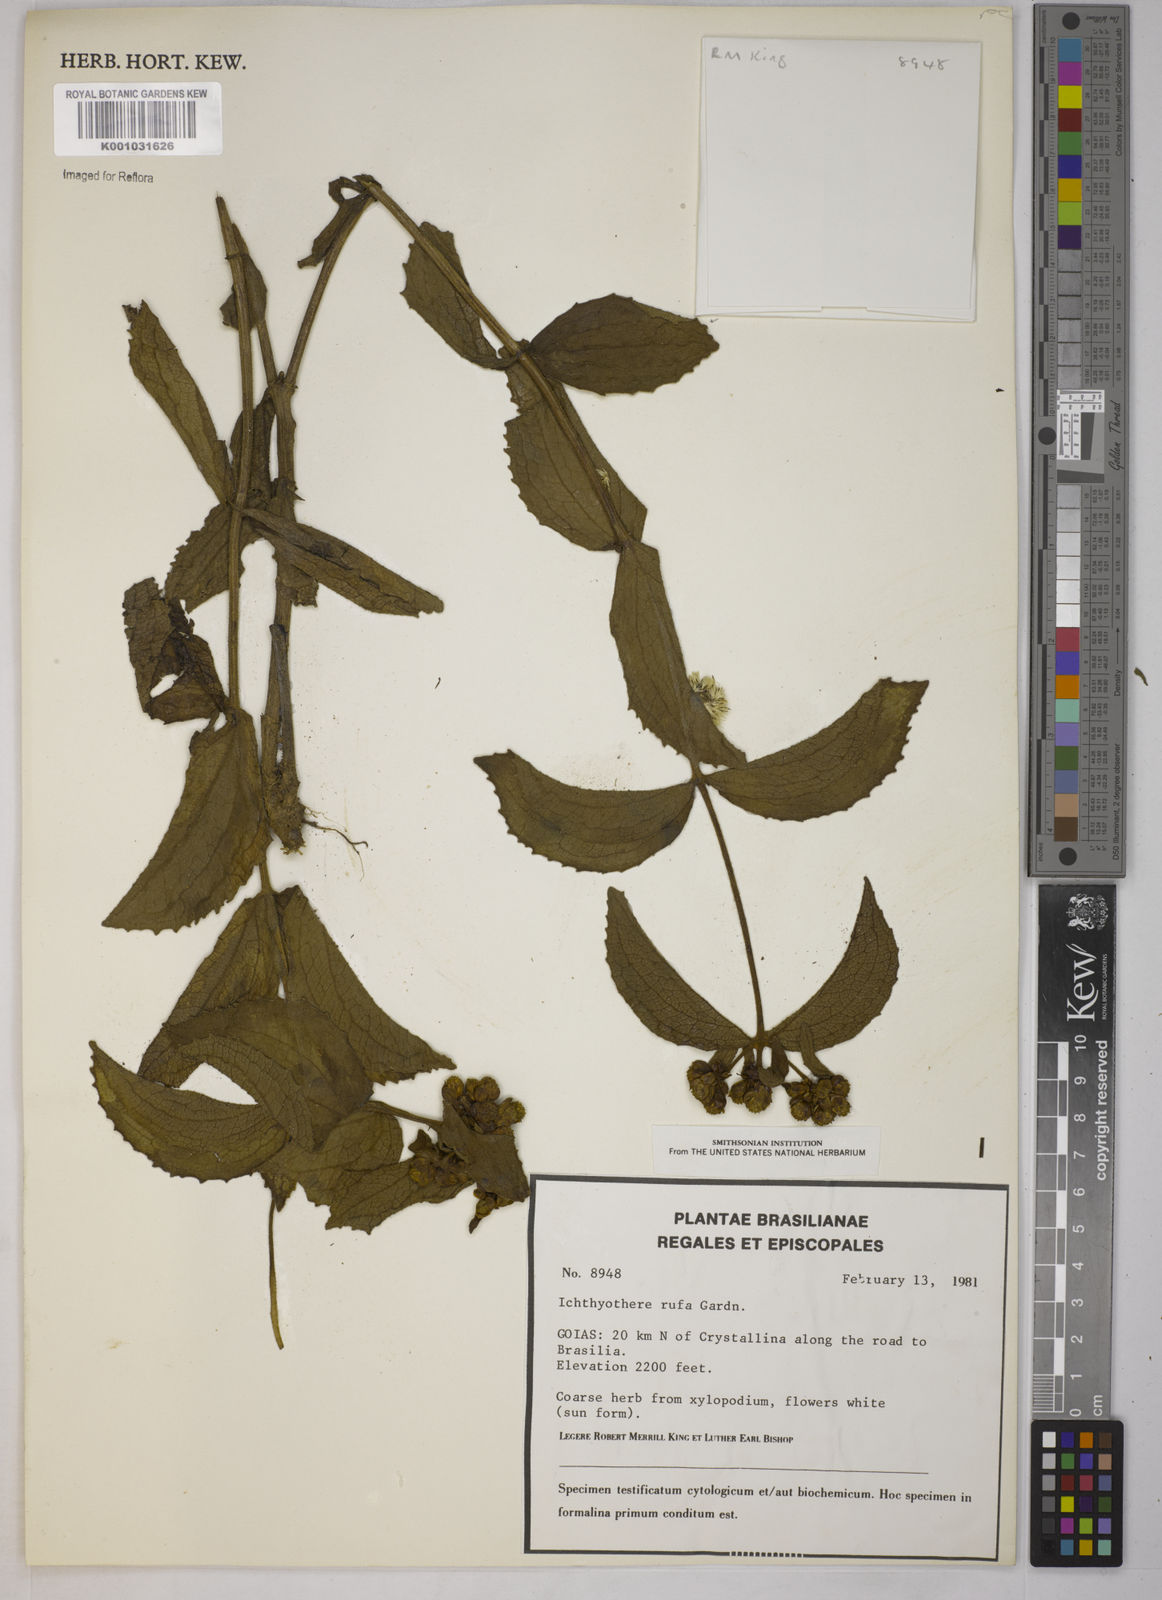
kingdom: Plantae
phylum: Tracheophyta
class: Magnoliopsida
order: Asterales
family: Asteraceae
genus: Ichthyothere
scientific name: Ichthyothere rufa
